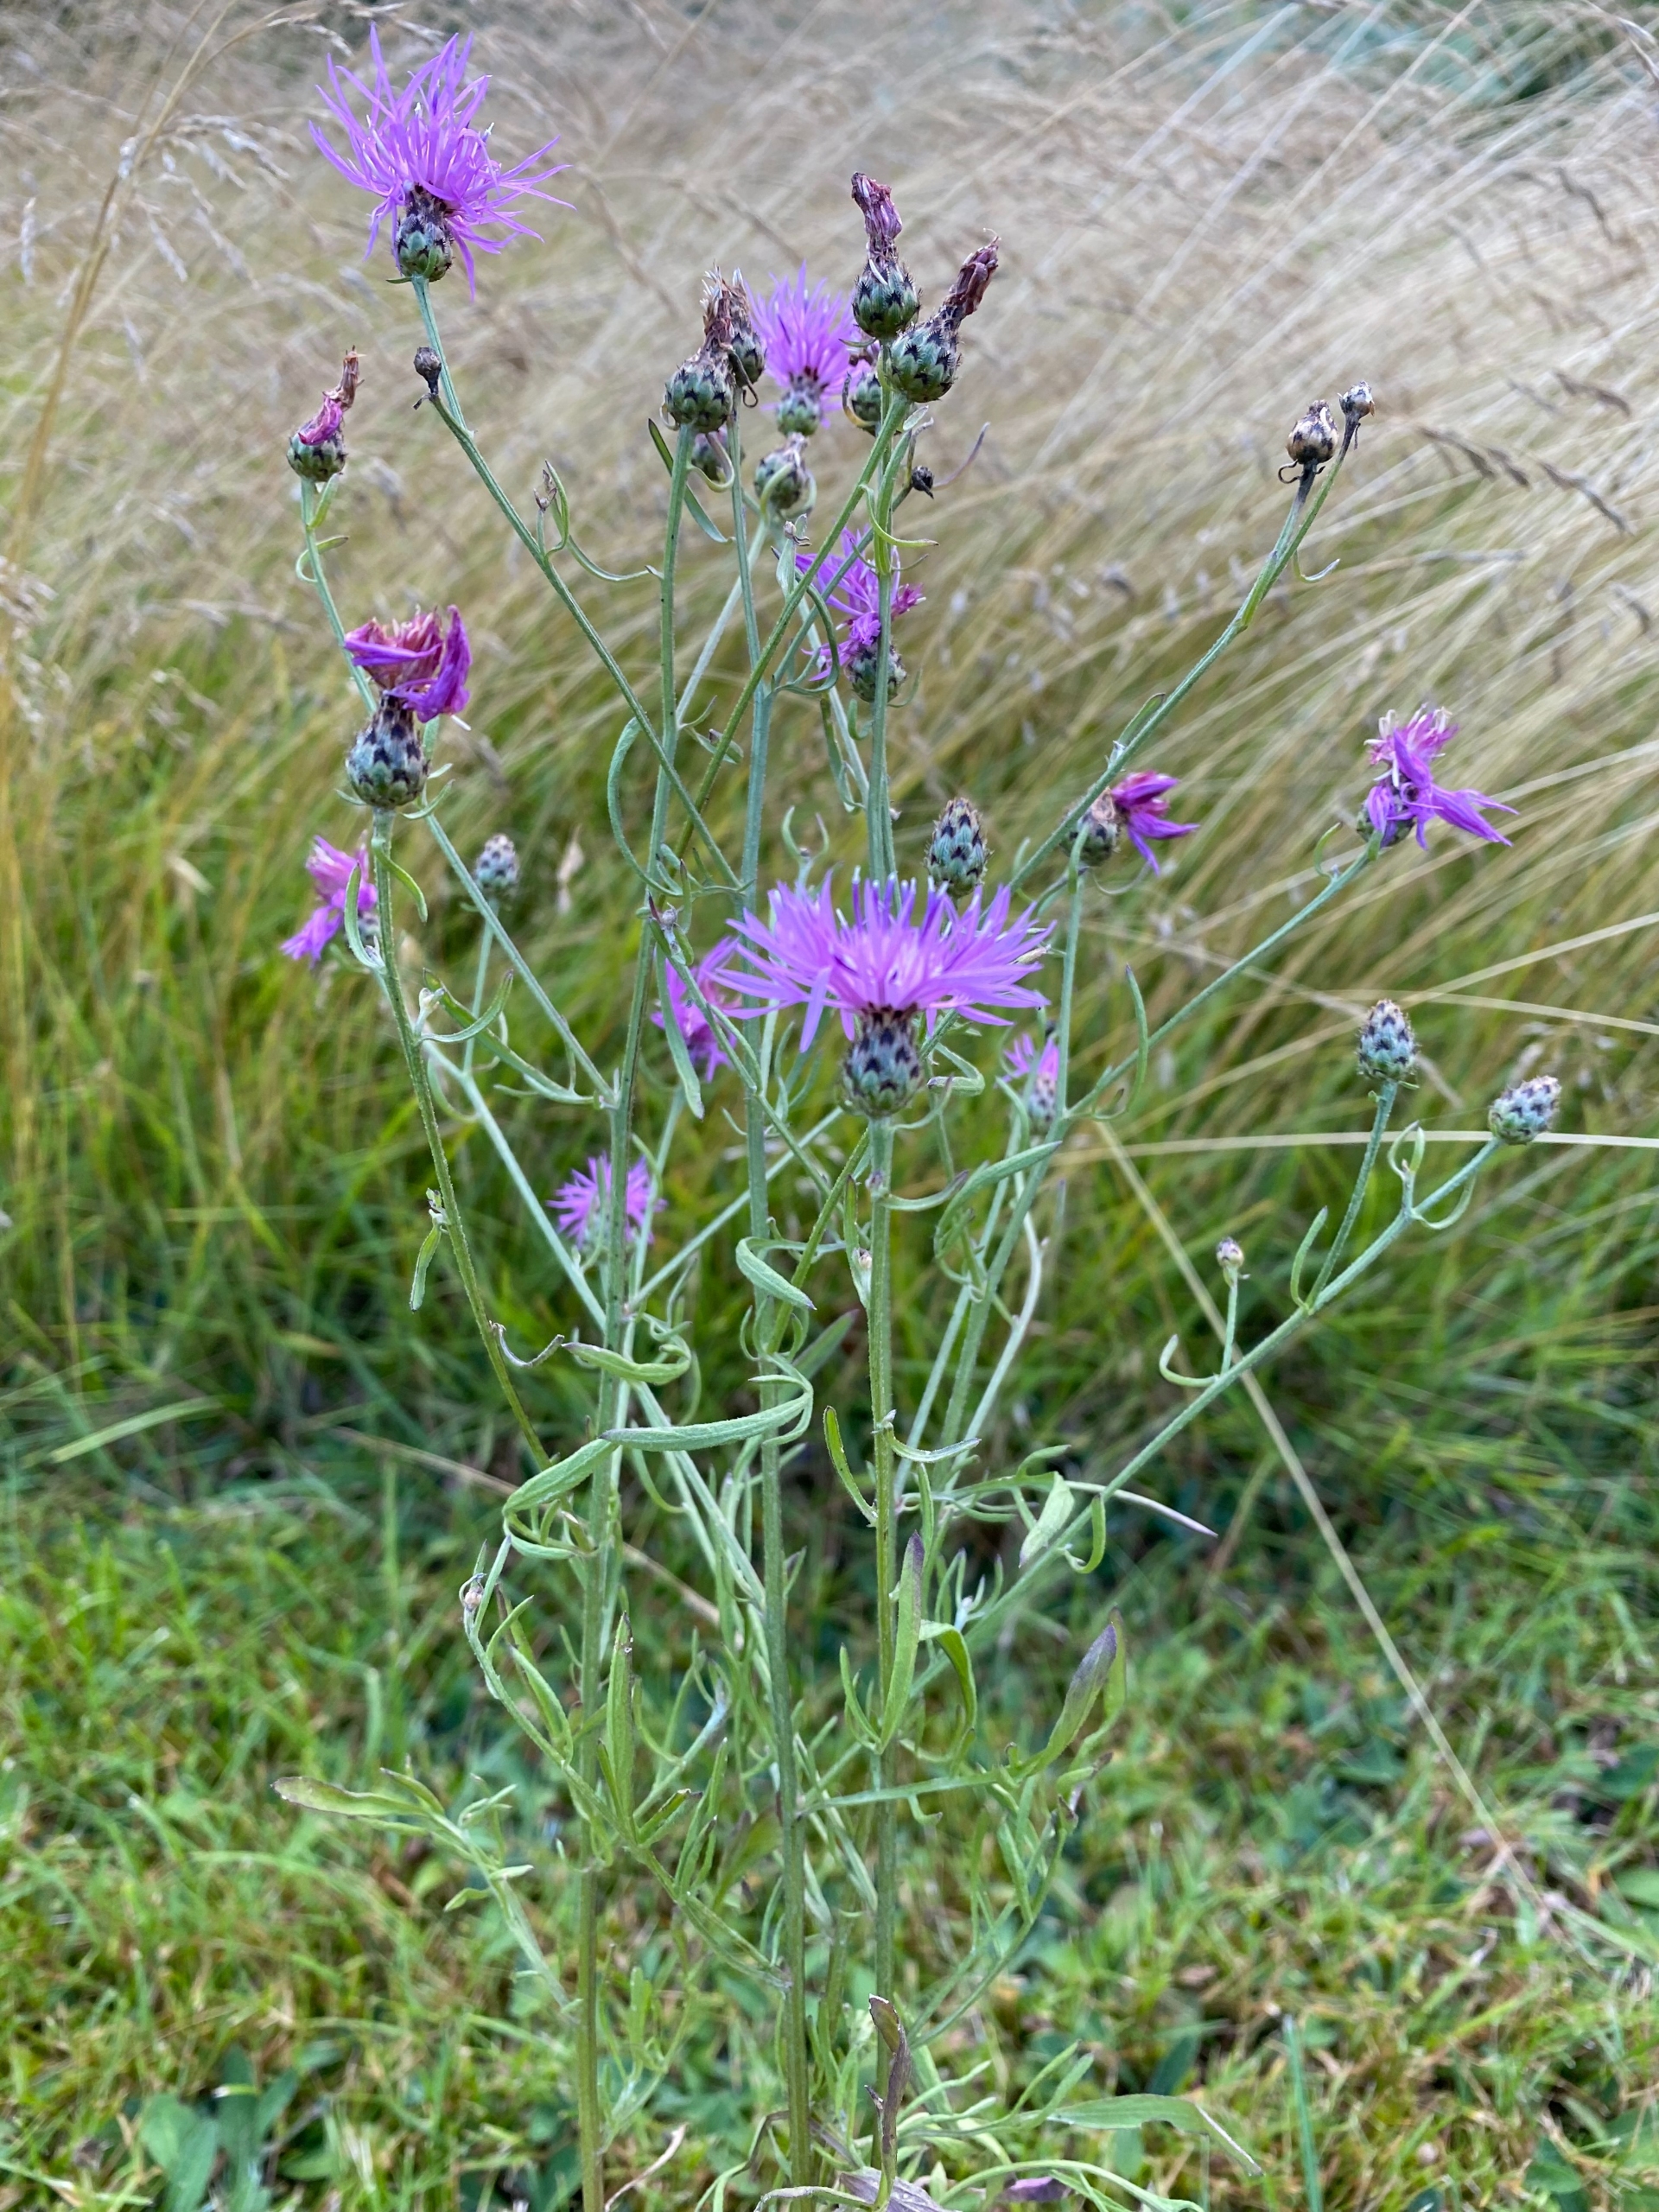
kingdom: Plantae
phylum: Tracheophyta
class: Magnoliopsida
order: Asterales
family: Asteraceae
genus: Centaurea
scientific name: Centaurea stoebe
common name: Mangegrenet knopurt
